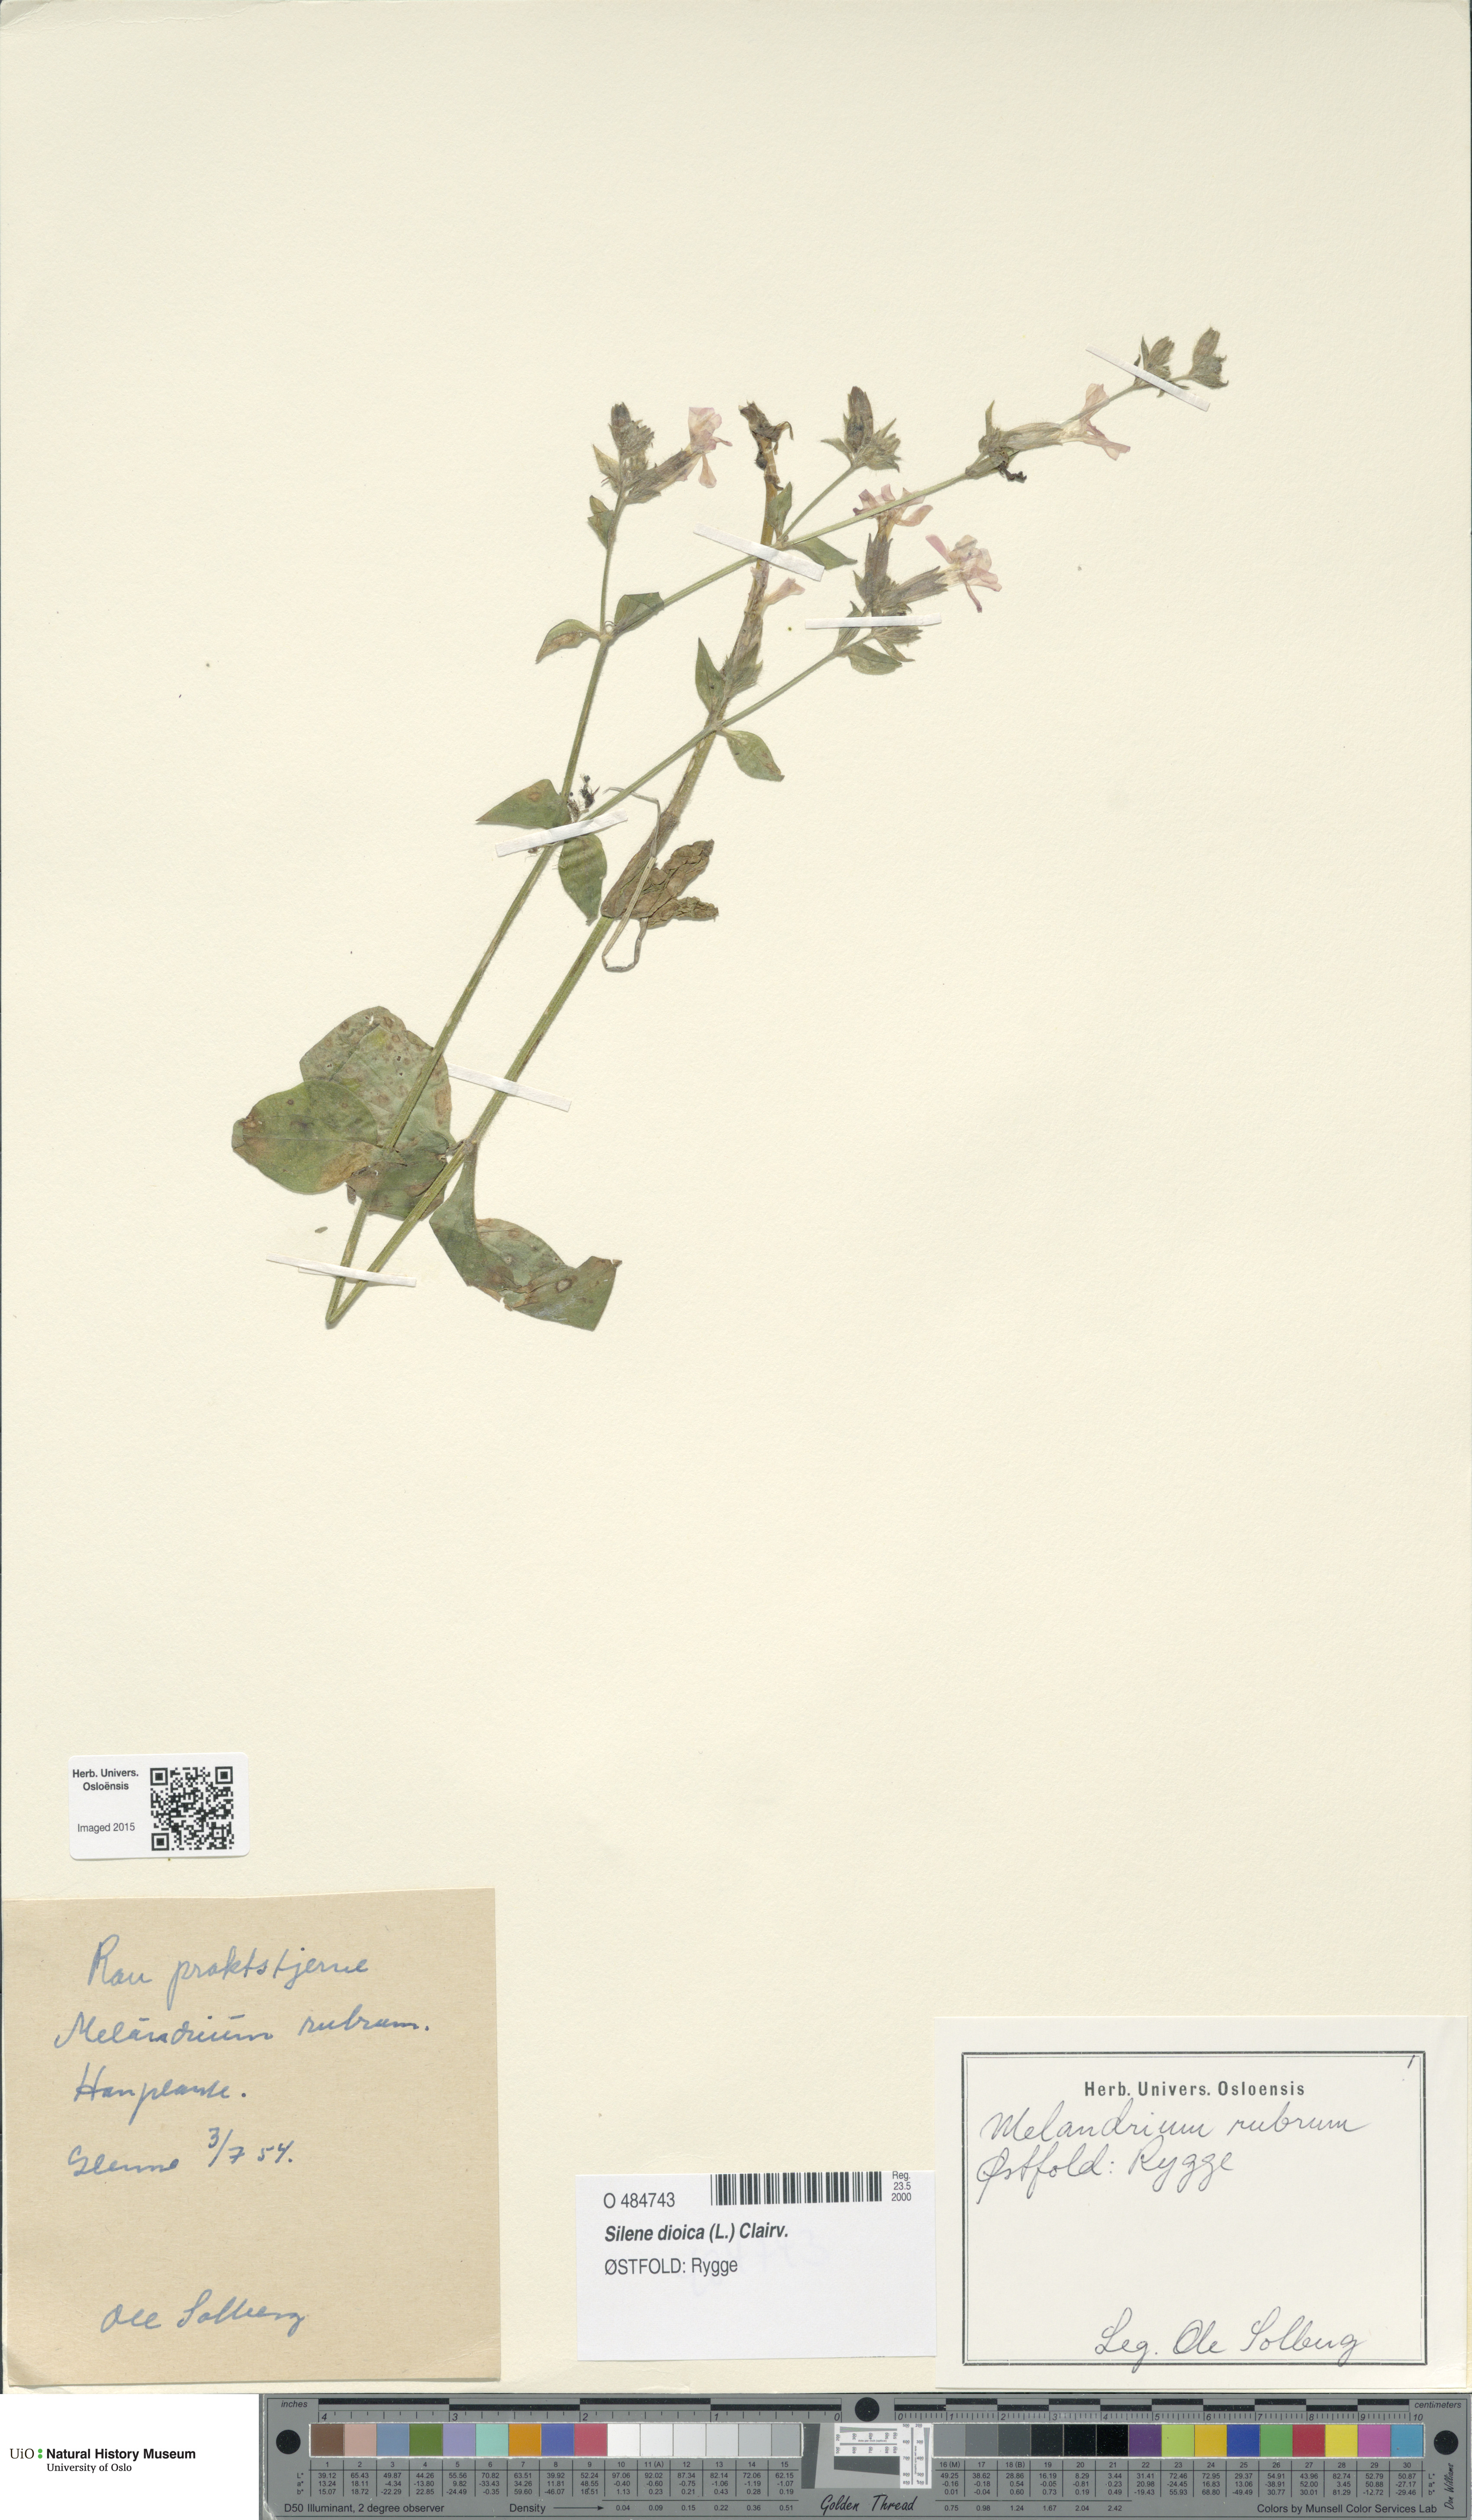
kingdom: Plantae
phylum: Tracheophyta
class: Magnoliopsida
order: Caryophyllales
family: Caryophyllaceae
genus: Silene
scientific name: Silene dioica
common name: Red campion
